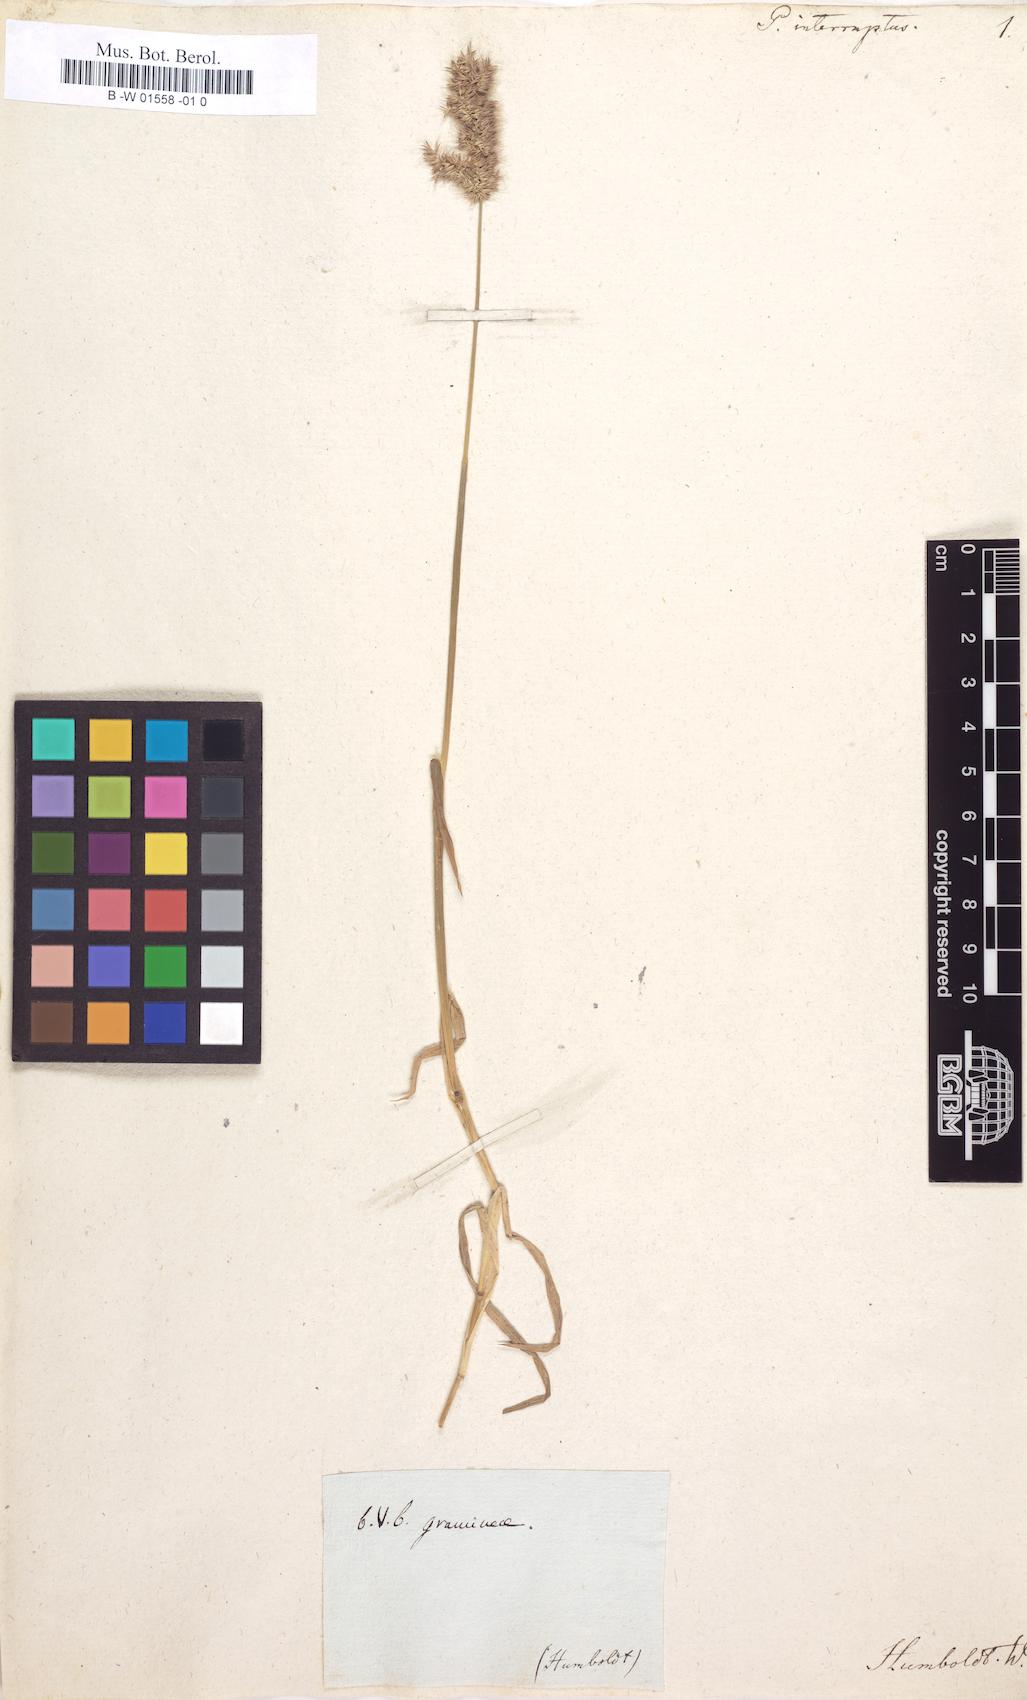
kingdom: Plantae
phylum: Tracheophyta
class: Liliopsida
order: Poales
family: Poaceae
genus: Polypogon
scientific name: Polypogon interruptus
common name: Ditch polypogon
